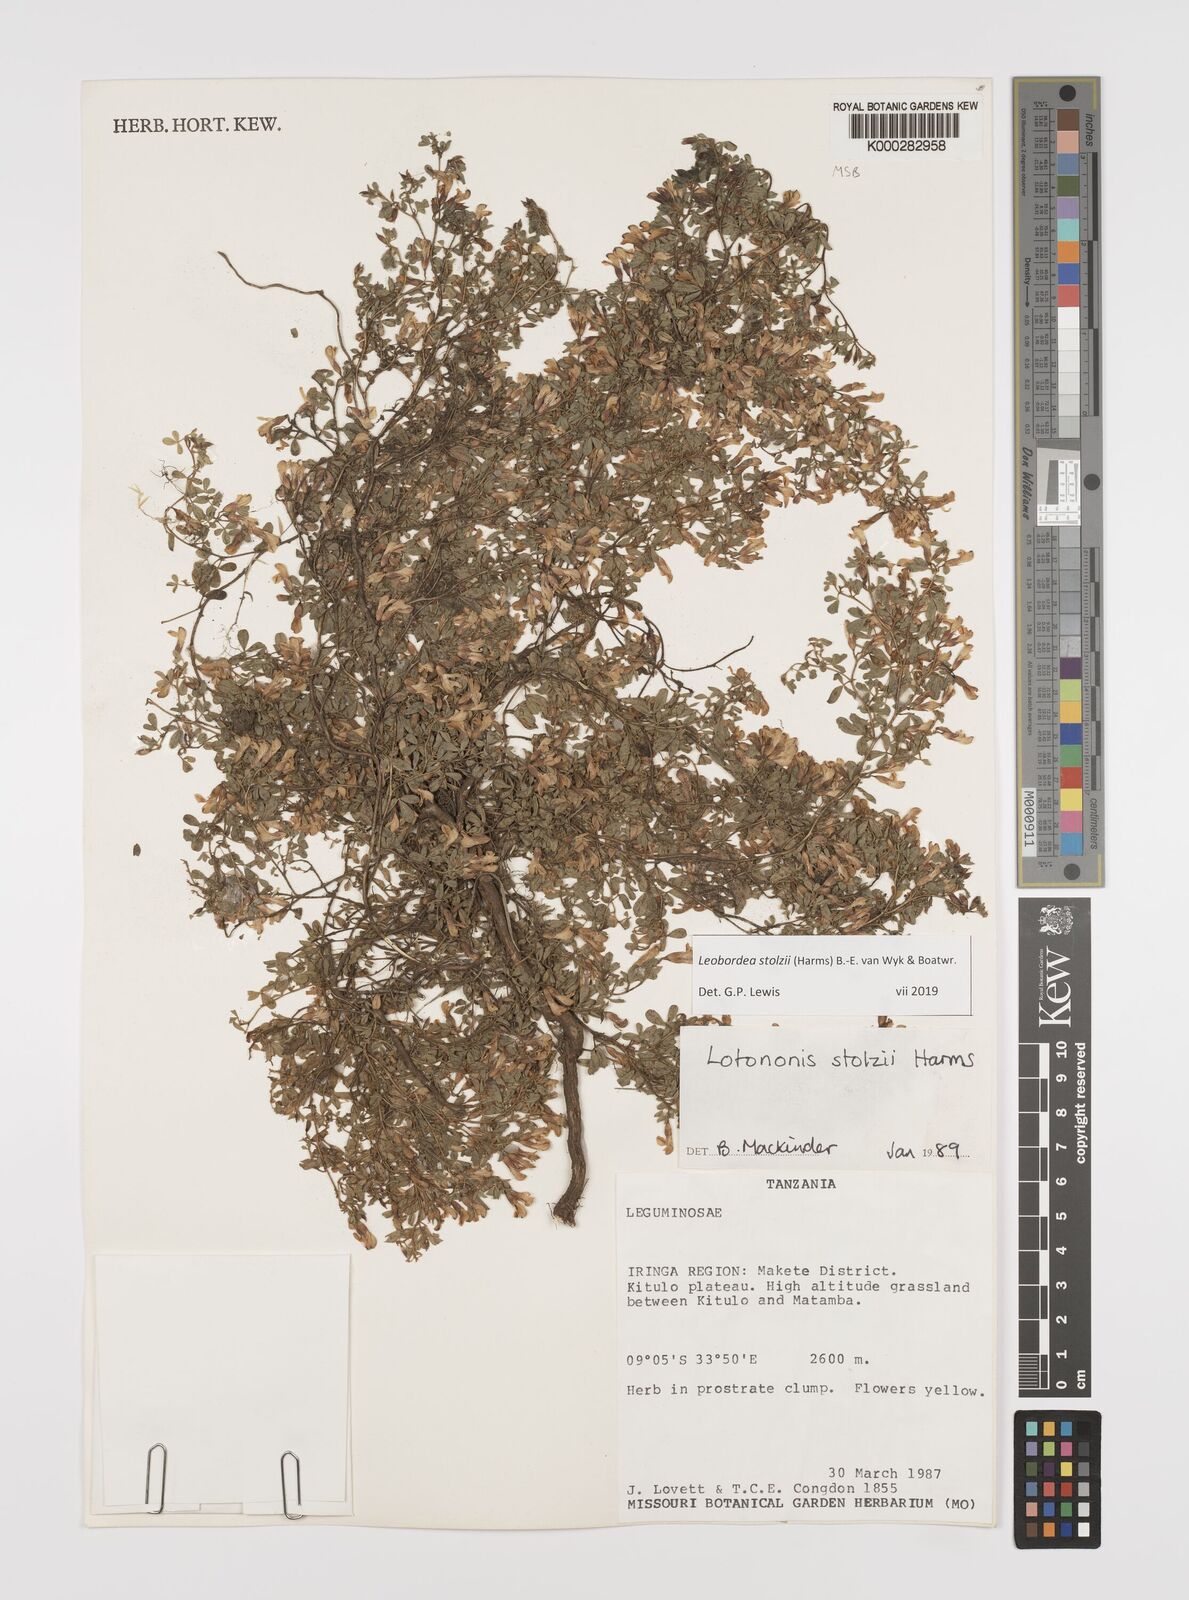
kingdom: Plantae
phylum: Tracheophyta
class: Magnoliopsida
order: Fabales
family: Fabaceae
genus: Leobordea
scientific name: Leobordea stolzii
